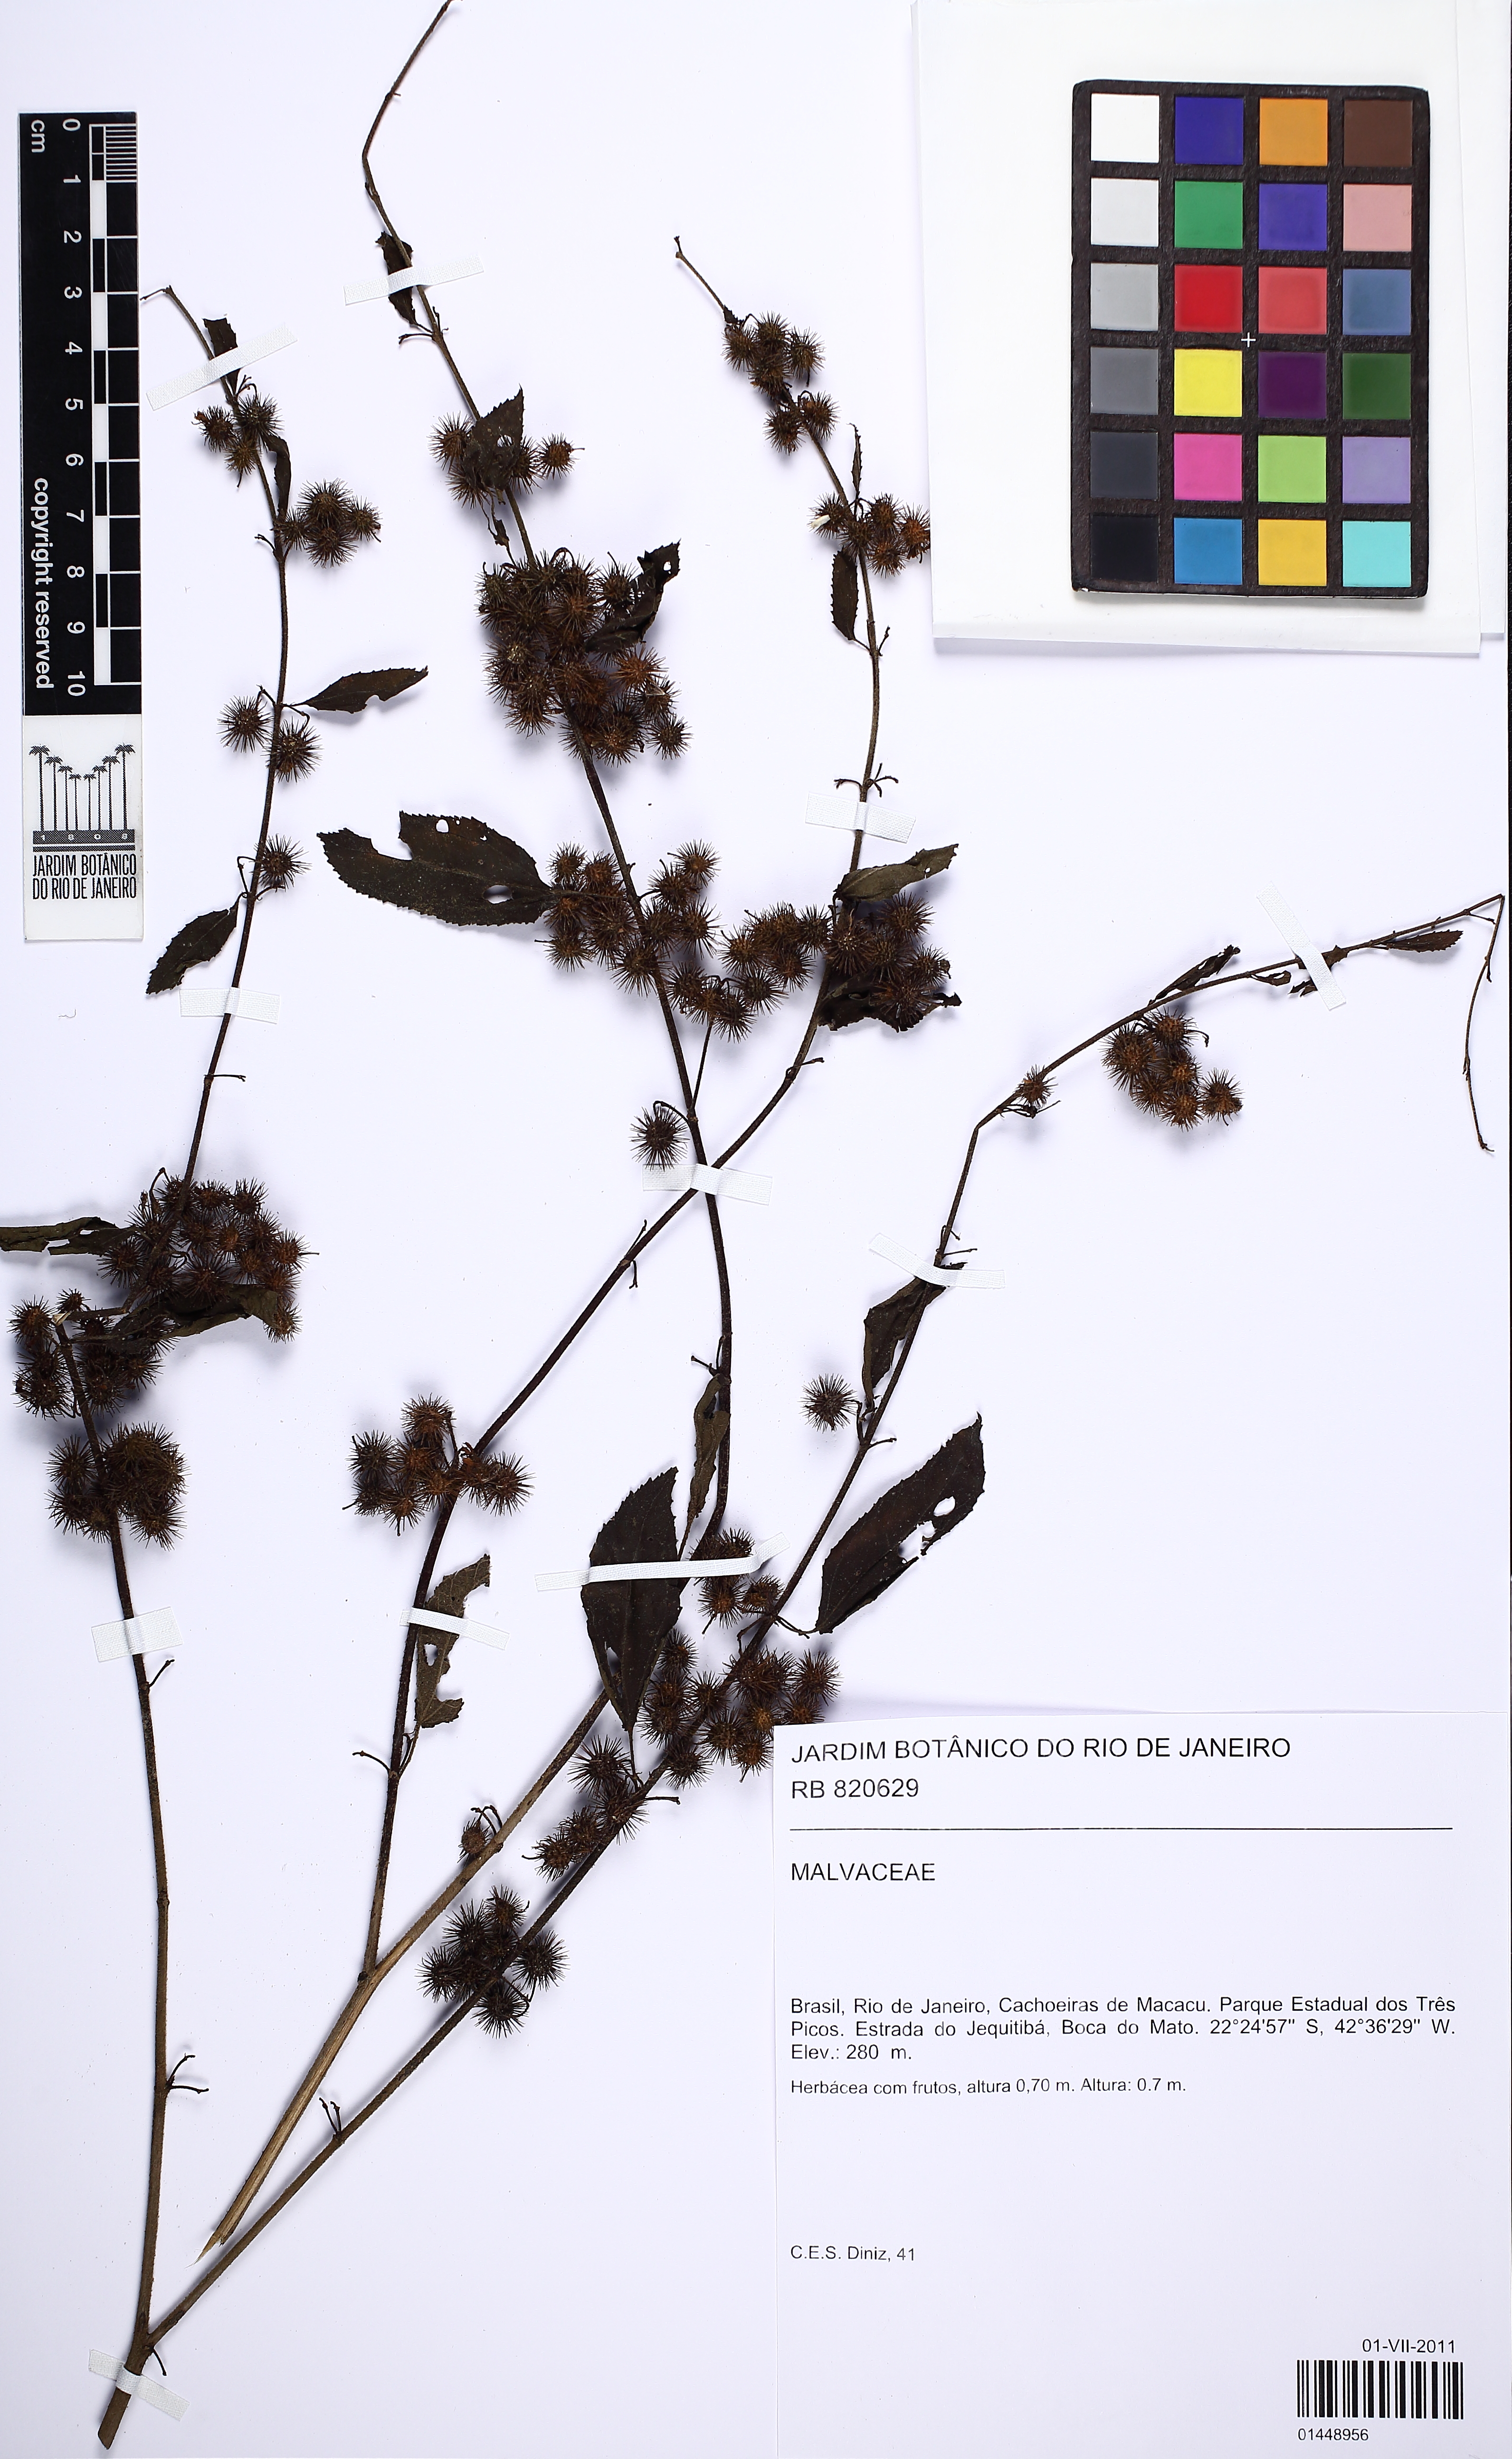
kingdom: Plantae
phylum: Tracheophyta
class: Magnoliopsida
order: Malvales
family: Malvaceae
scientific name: Malvaceae
